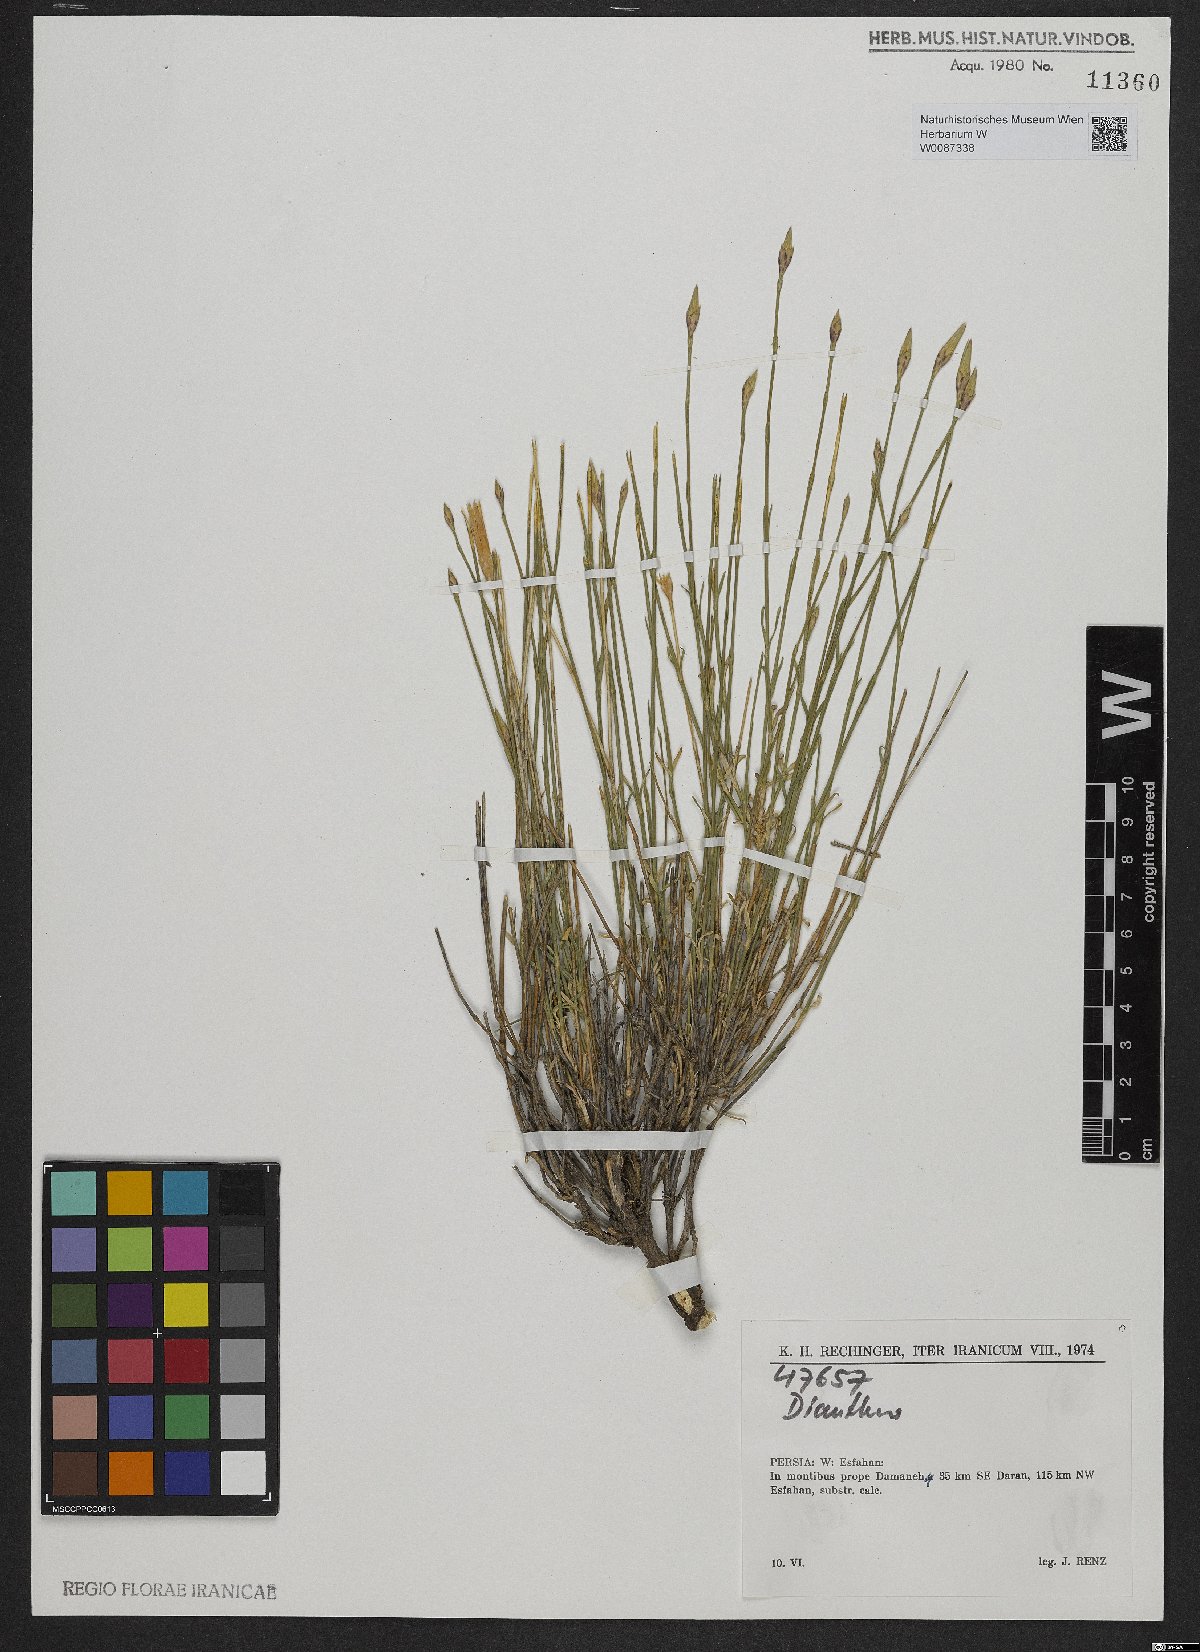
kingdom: Plantae
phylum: Tracheophyta
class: Magnoliopsida
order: Caryophyllales
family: Caryophyllaceae
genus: Dianthus
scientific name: Dianthus
